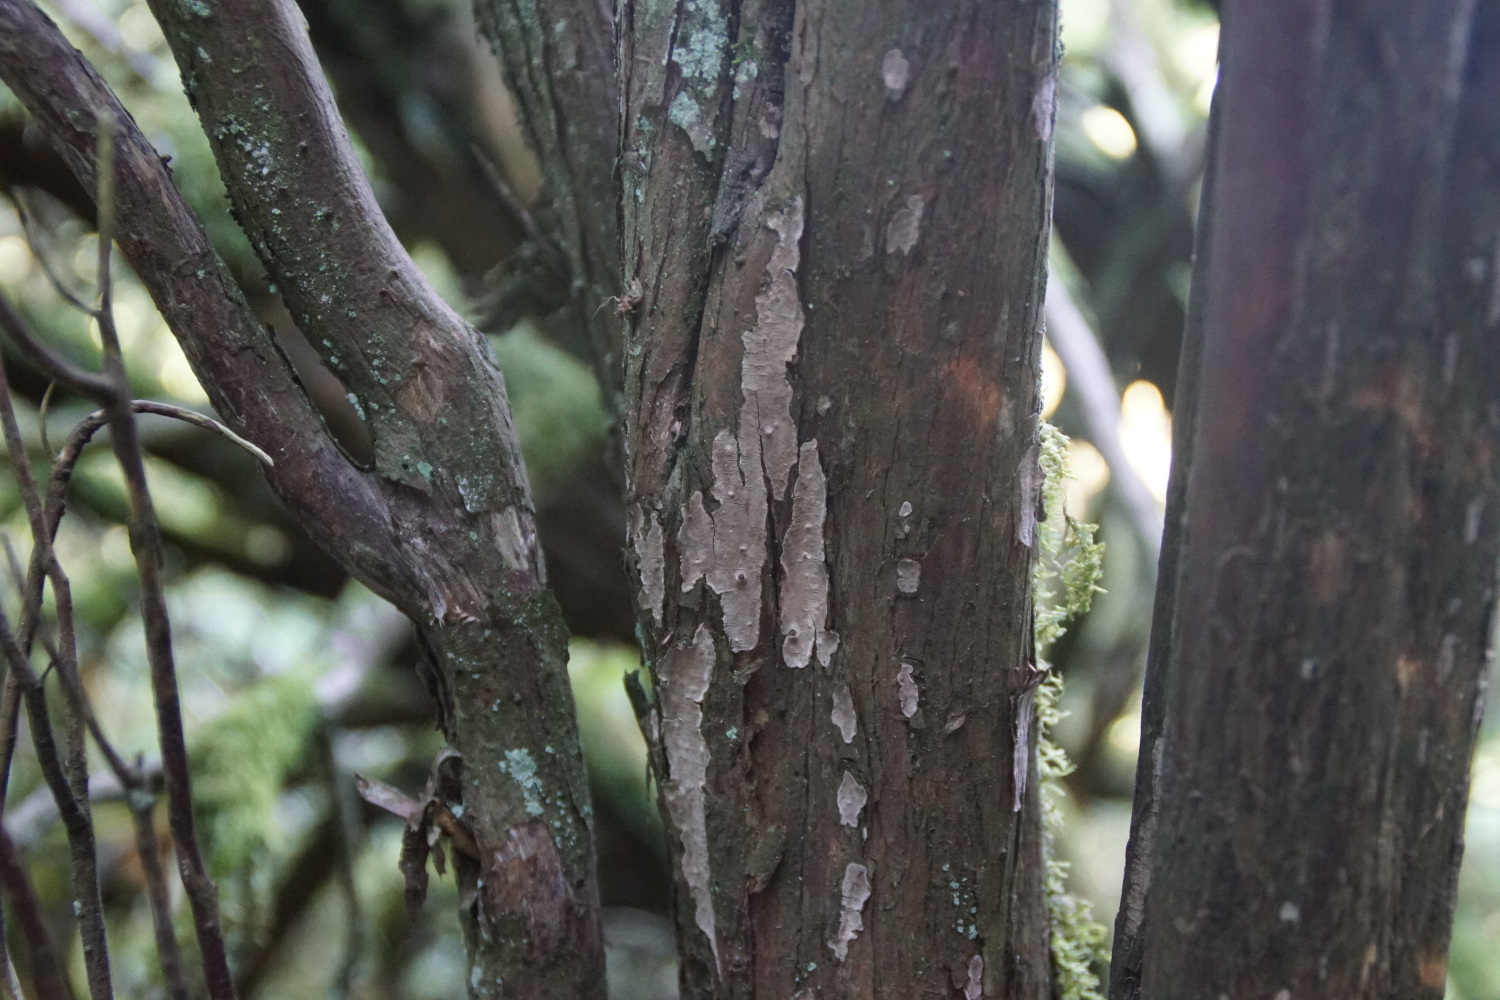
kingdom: Fungi
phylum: Basidiomycota
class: Agaricomycetes
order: Russulales
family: Echinodontiaceae
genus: Amylostereum
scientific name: Amylostereum laevigatum
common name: ene-lædersvamp
